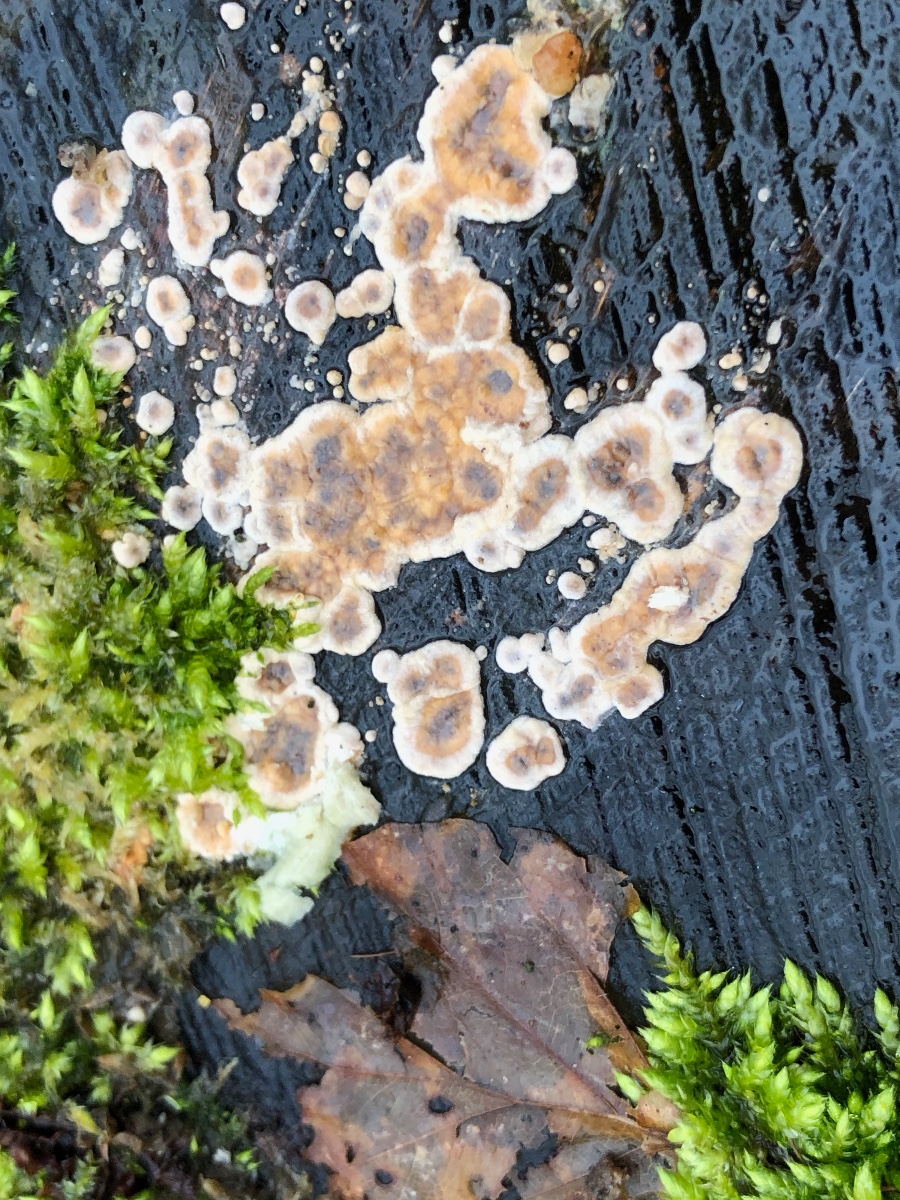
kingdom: Fungi
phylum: Basidiomycota
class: Agaricomycetes
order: Russulales
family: Stereaceae
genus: Stereum
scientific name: Stereum
